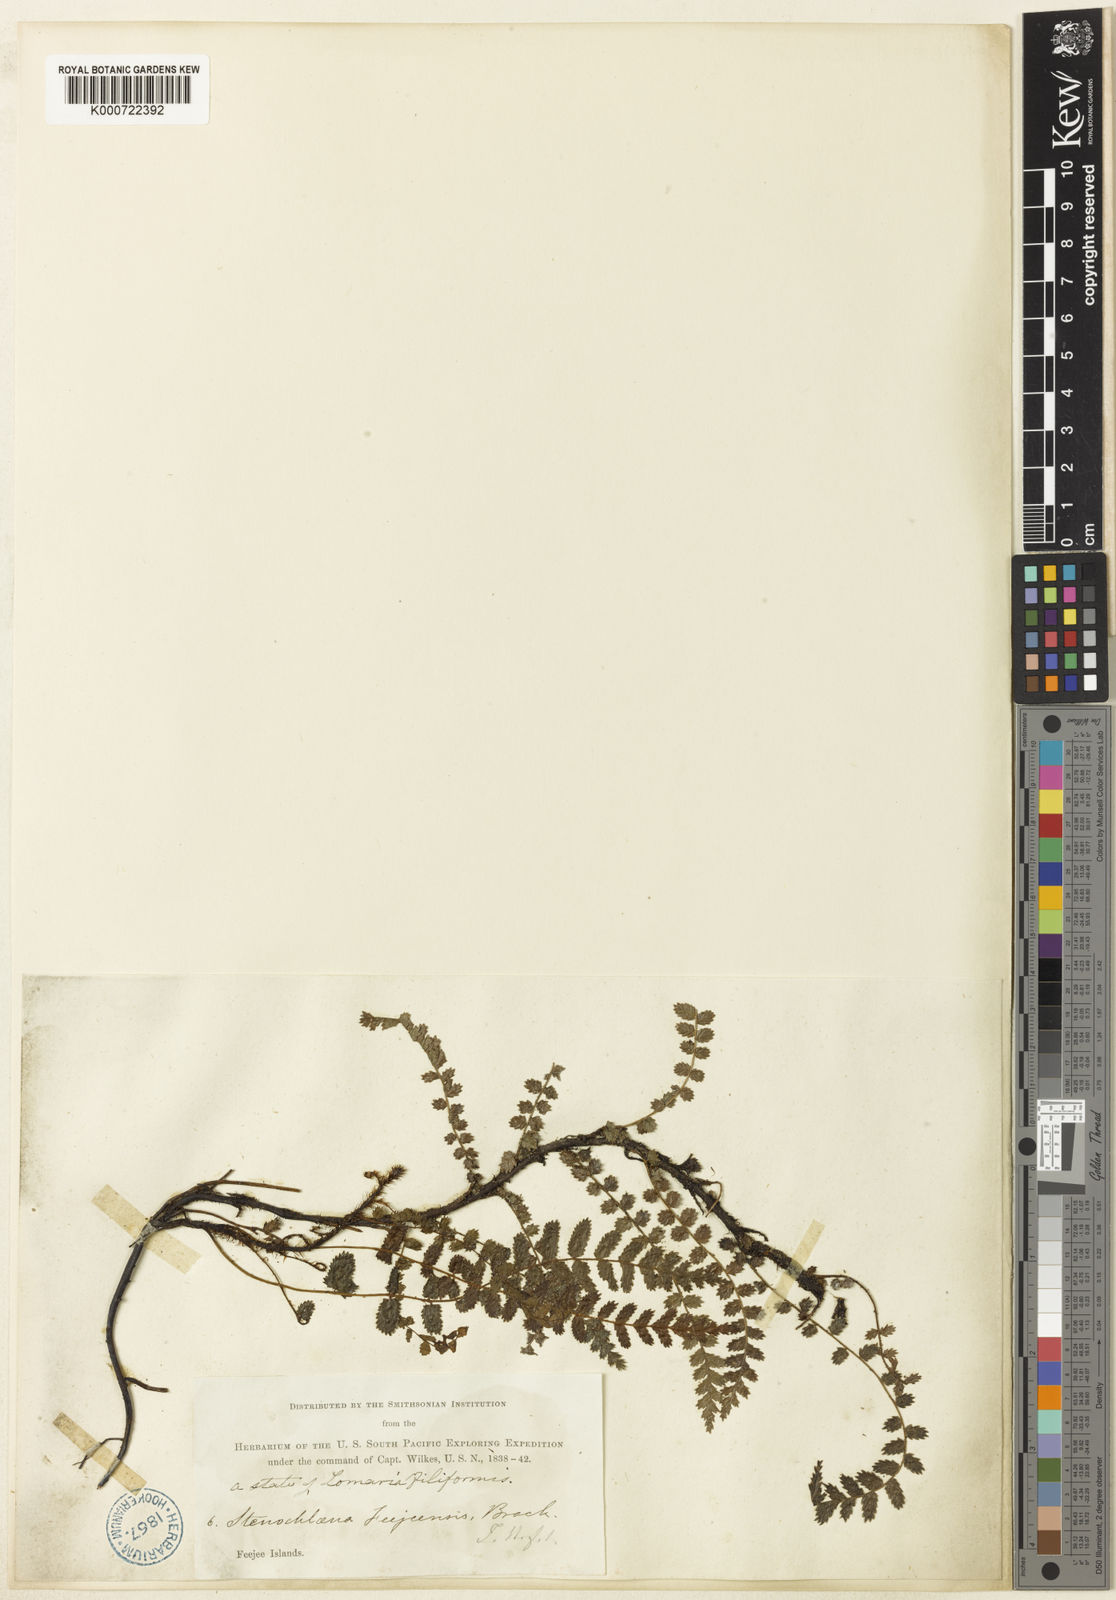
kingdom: Plantae
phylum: Tracheophyta
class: Polypodiopsida
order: Polypodiales
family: Blechnaceae
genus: Icarus
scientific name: Icarus filiformis
